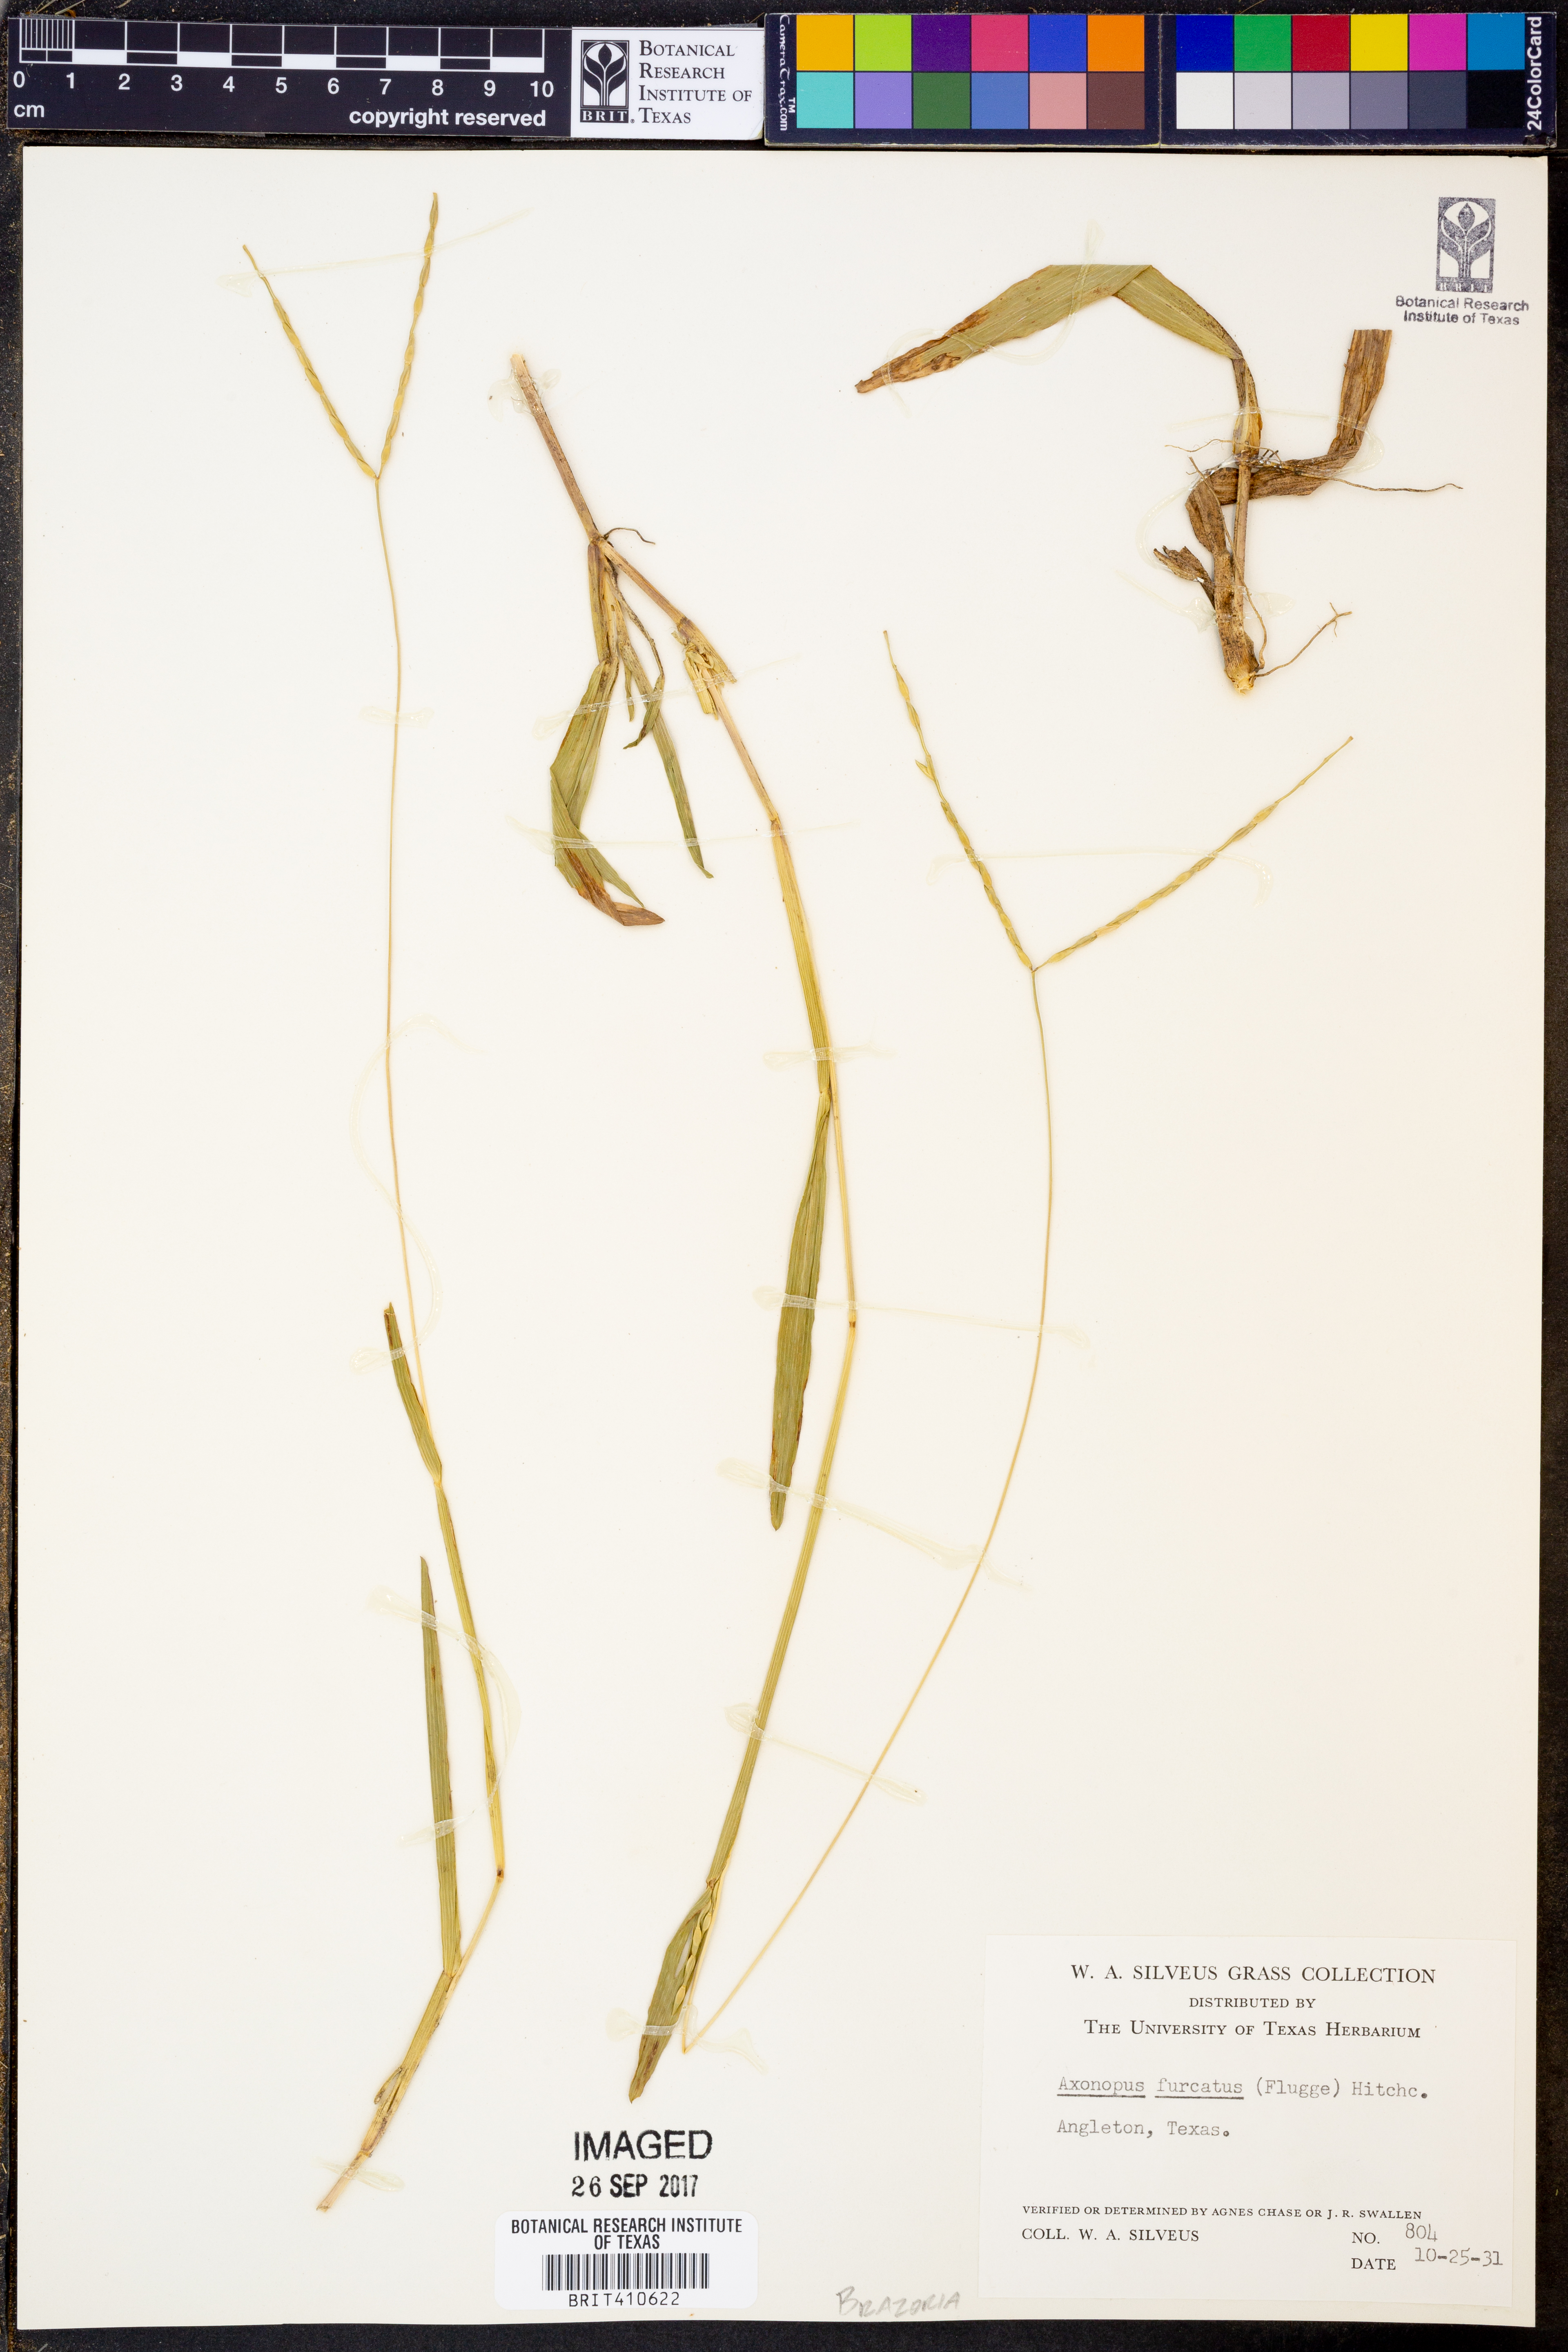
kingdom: Plantae
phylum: Tracheophyta
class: Liliopsida
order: Poales
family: Poaceae
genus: Axonopus
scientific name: Axonopus furcatus
